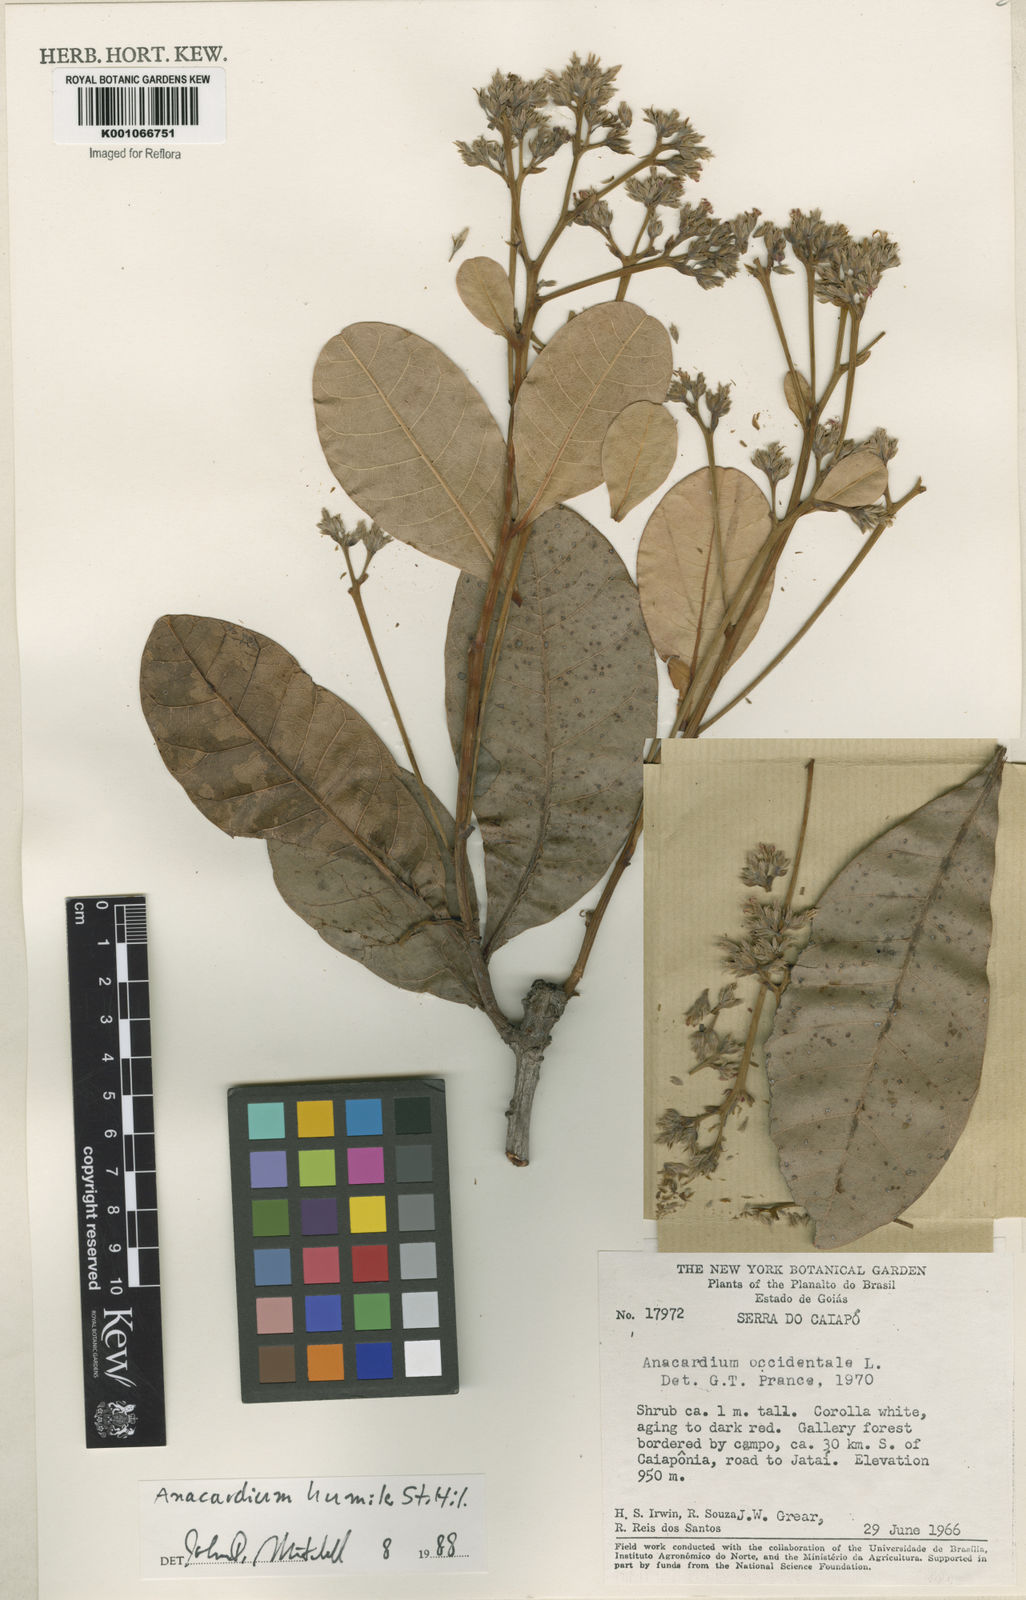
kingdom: Plantae
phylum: Tracheophyta
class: Magnoliopsida
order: Sapindales
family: Anacardiaceae
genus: Anacardium
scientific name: Anacardium humile
